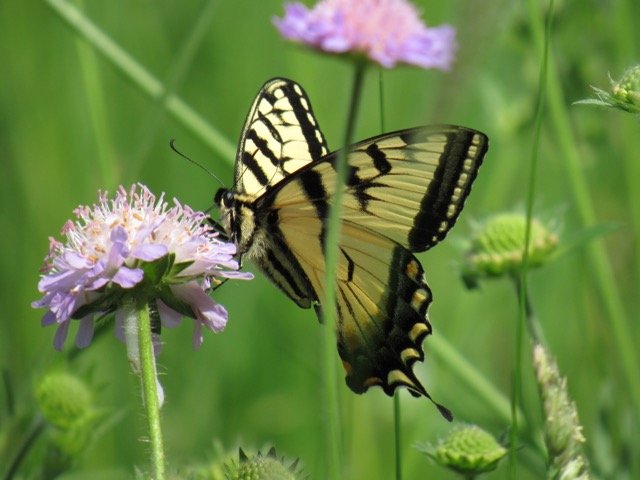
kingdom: Animalia
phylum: Arthropoda
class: Insecta
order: Lepidoptera
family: Papilionidae
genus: Pterourus
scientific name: Pterourus canadensis
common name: Canadian Tiger Swallowtail
